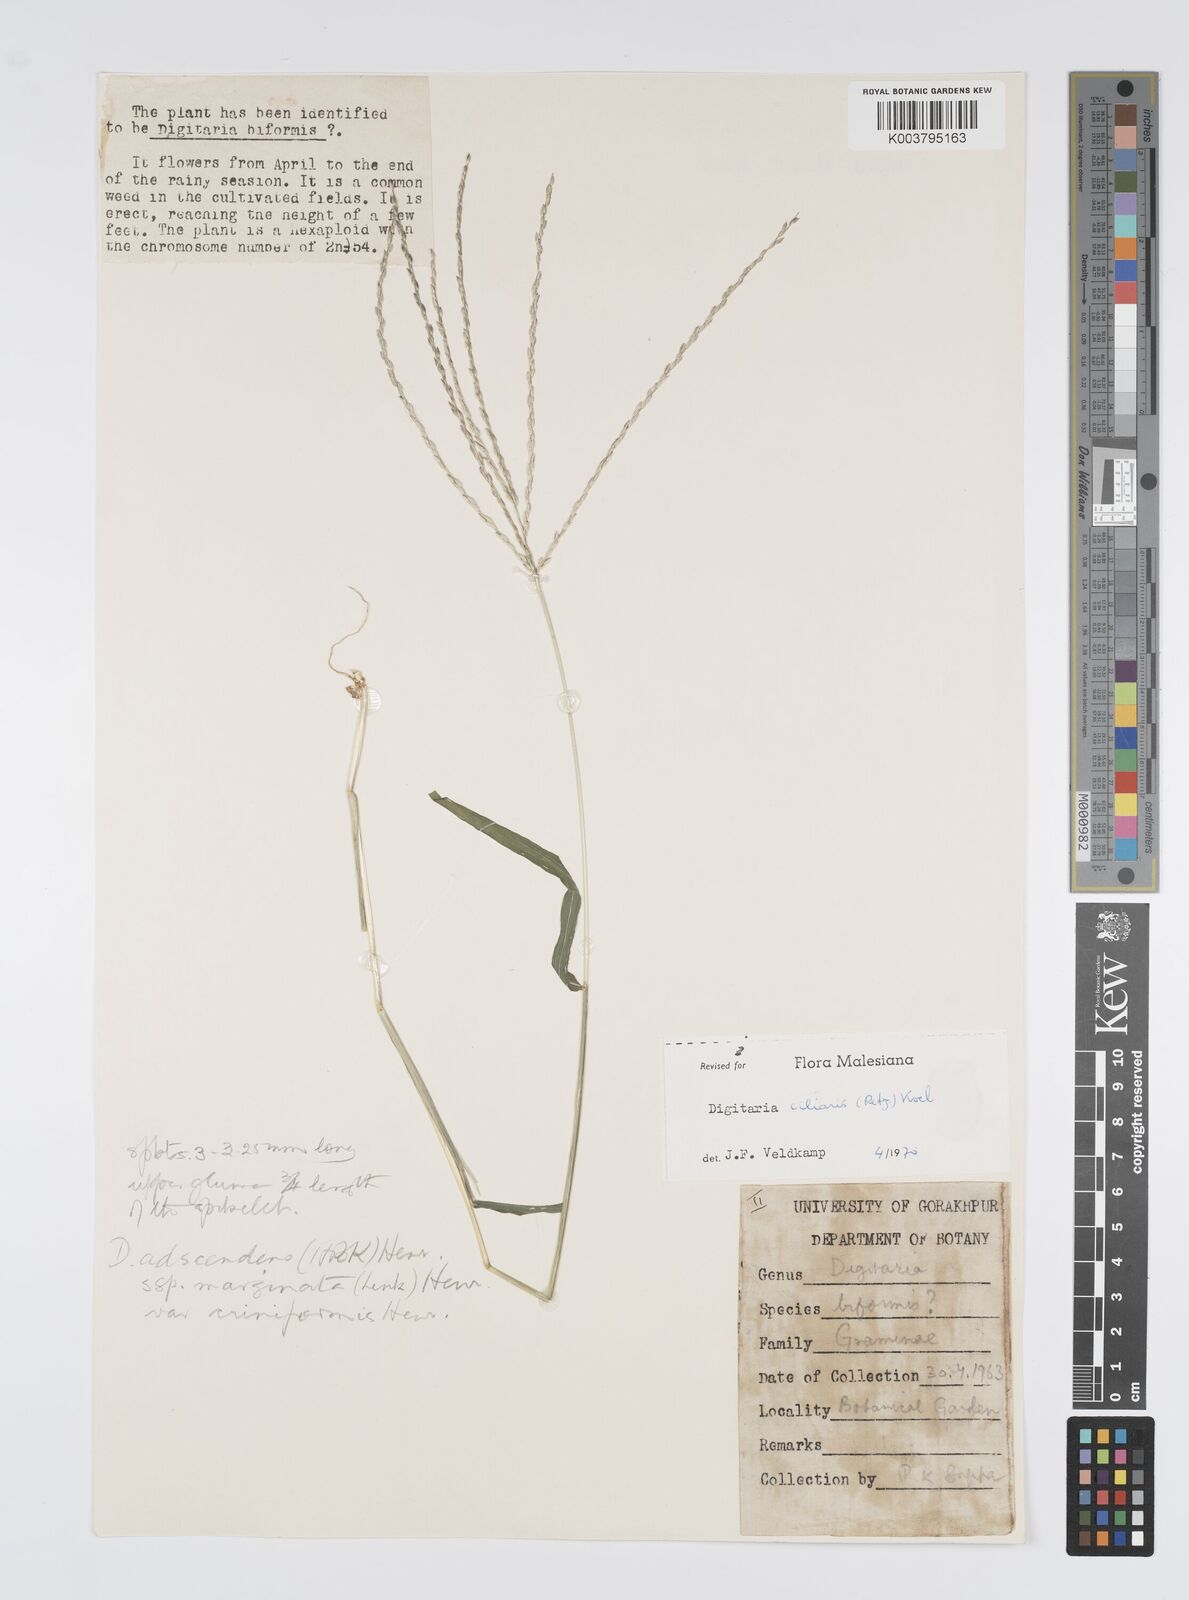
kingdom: Plantae
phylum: Tracheophyta
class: Liliopsida
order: Poales
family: Poaceae
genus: Digitaria
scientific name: Digitaria ciliaris
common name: Tropical finger-grass
